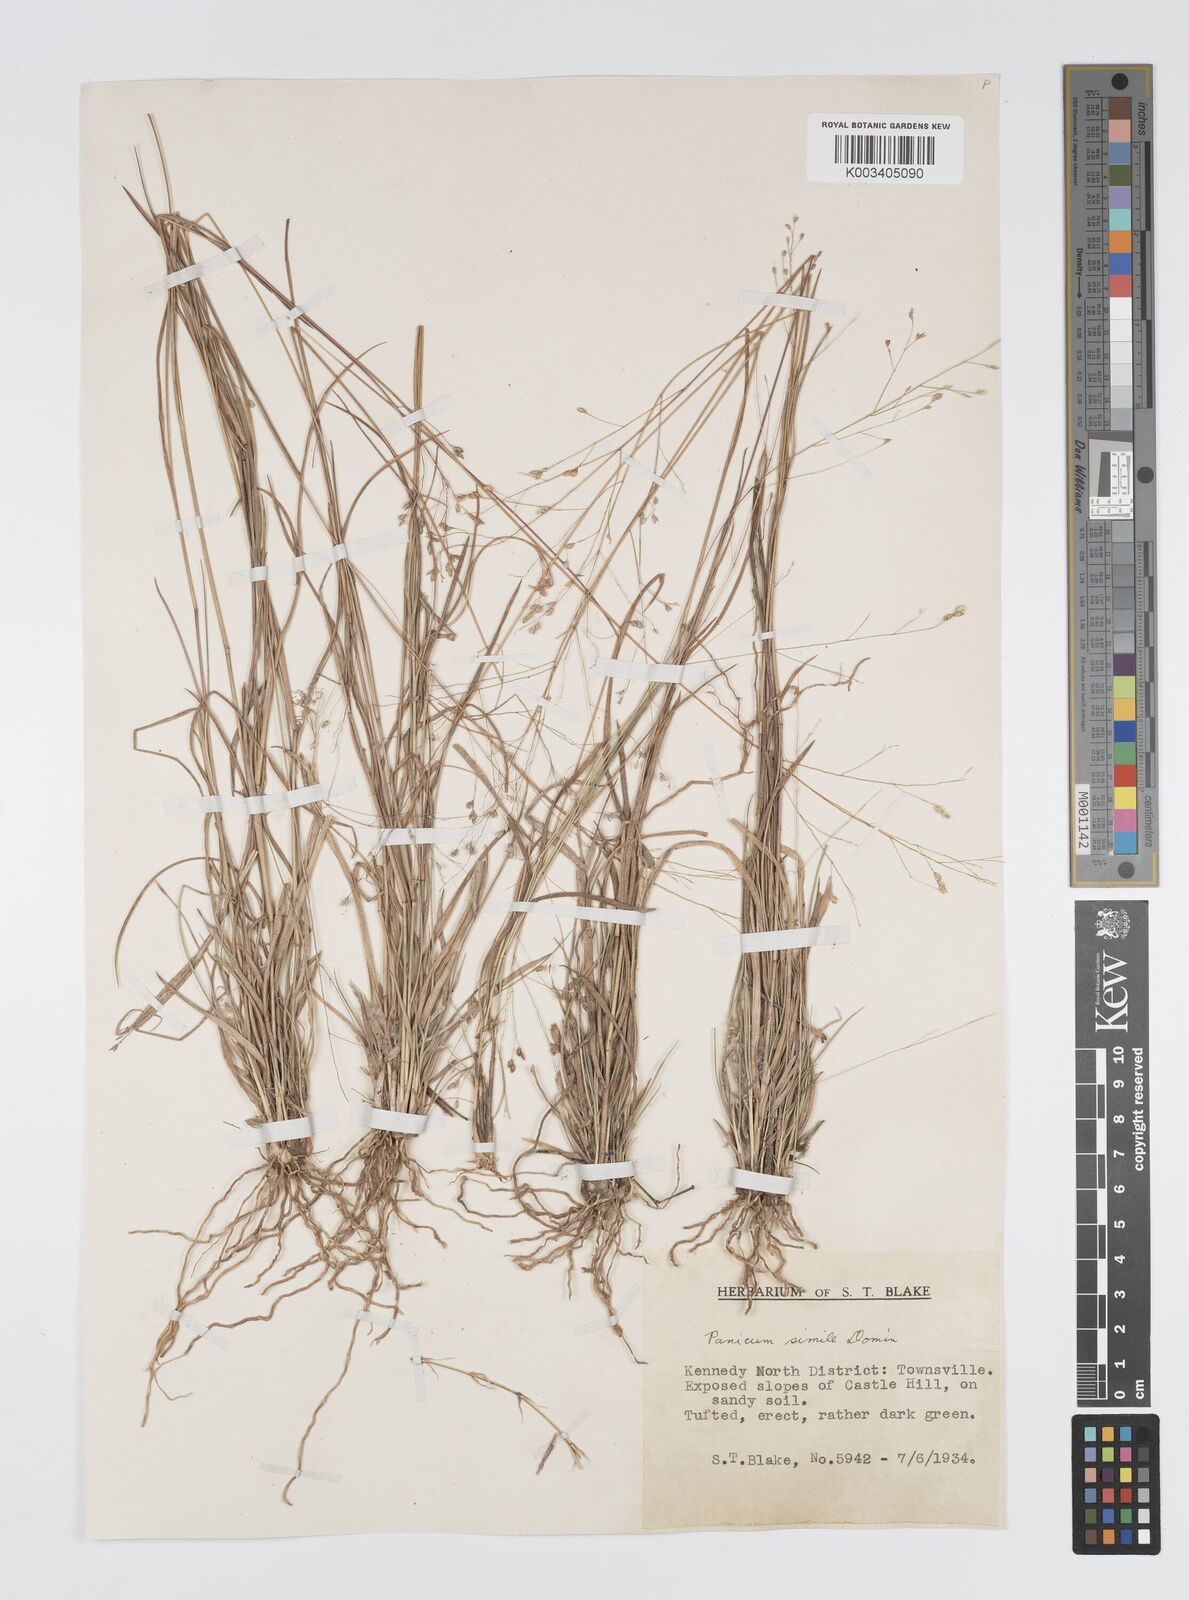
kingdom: Plantae
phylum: Tracheophyta
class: Liliopsida
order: Poales
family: Poaceae
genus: Panicum
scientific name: Panicum simile
